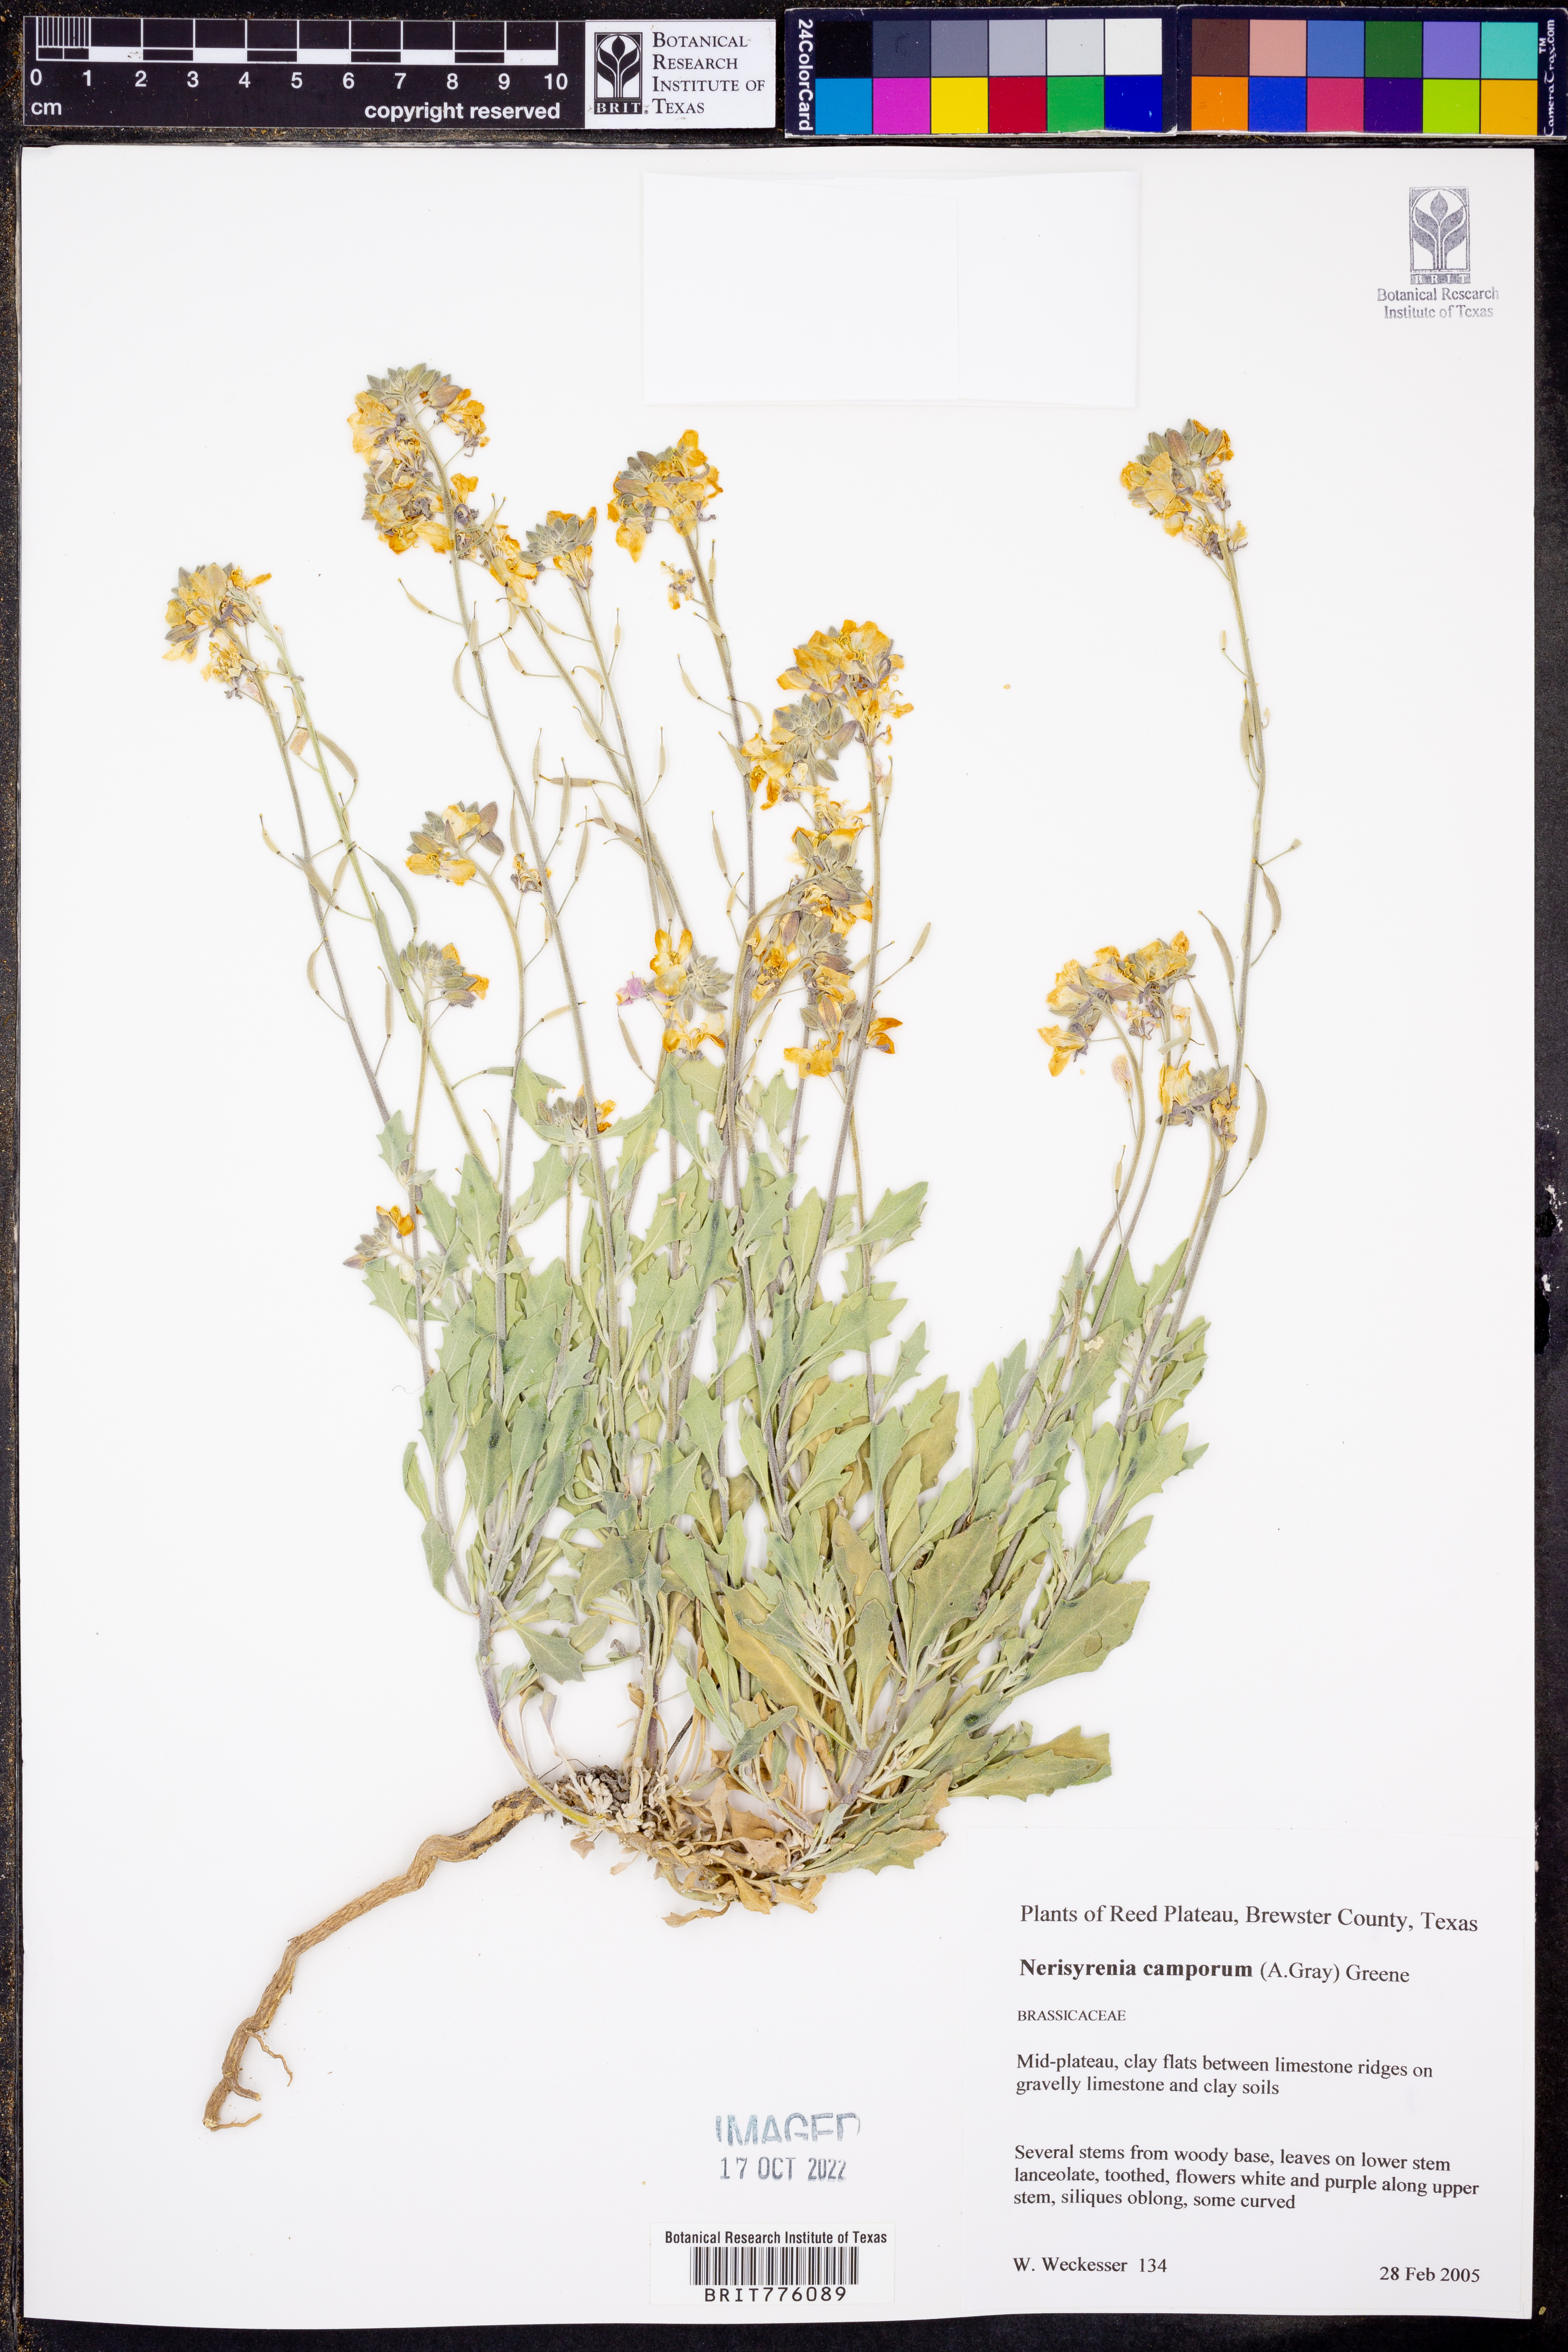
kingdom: Plantae
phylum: Tracheophyta
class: Magnoliopsida
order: Brassicales
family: Brassicaceae
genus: Nerisyrenia
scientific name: Nerisyrenia camporum
